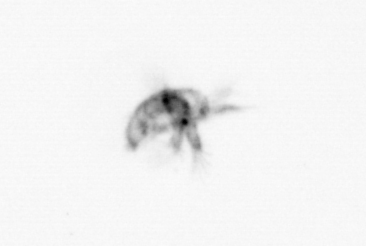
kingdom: Animalia
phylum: Arthropoda
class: Copepoda
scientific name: Copepoda
